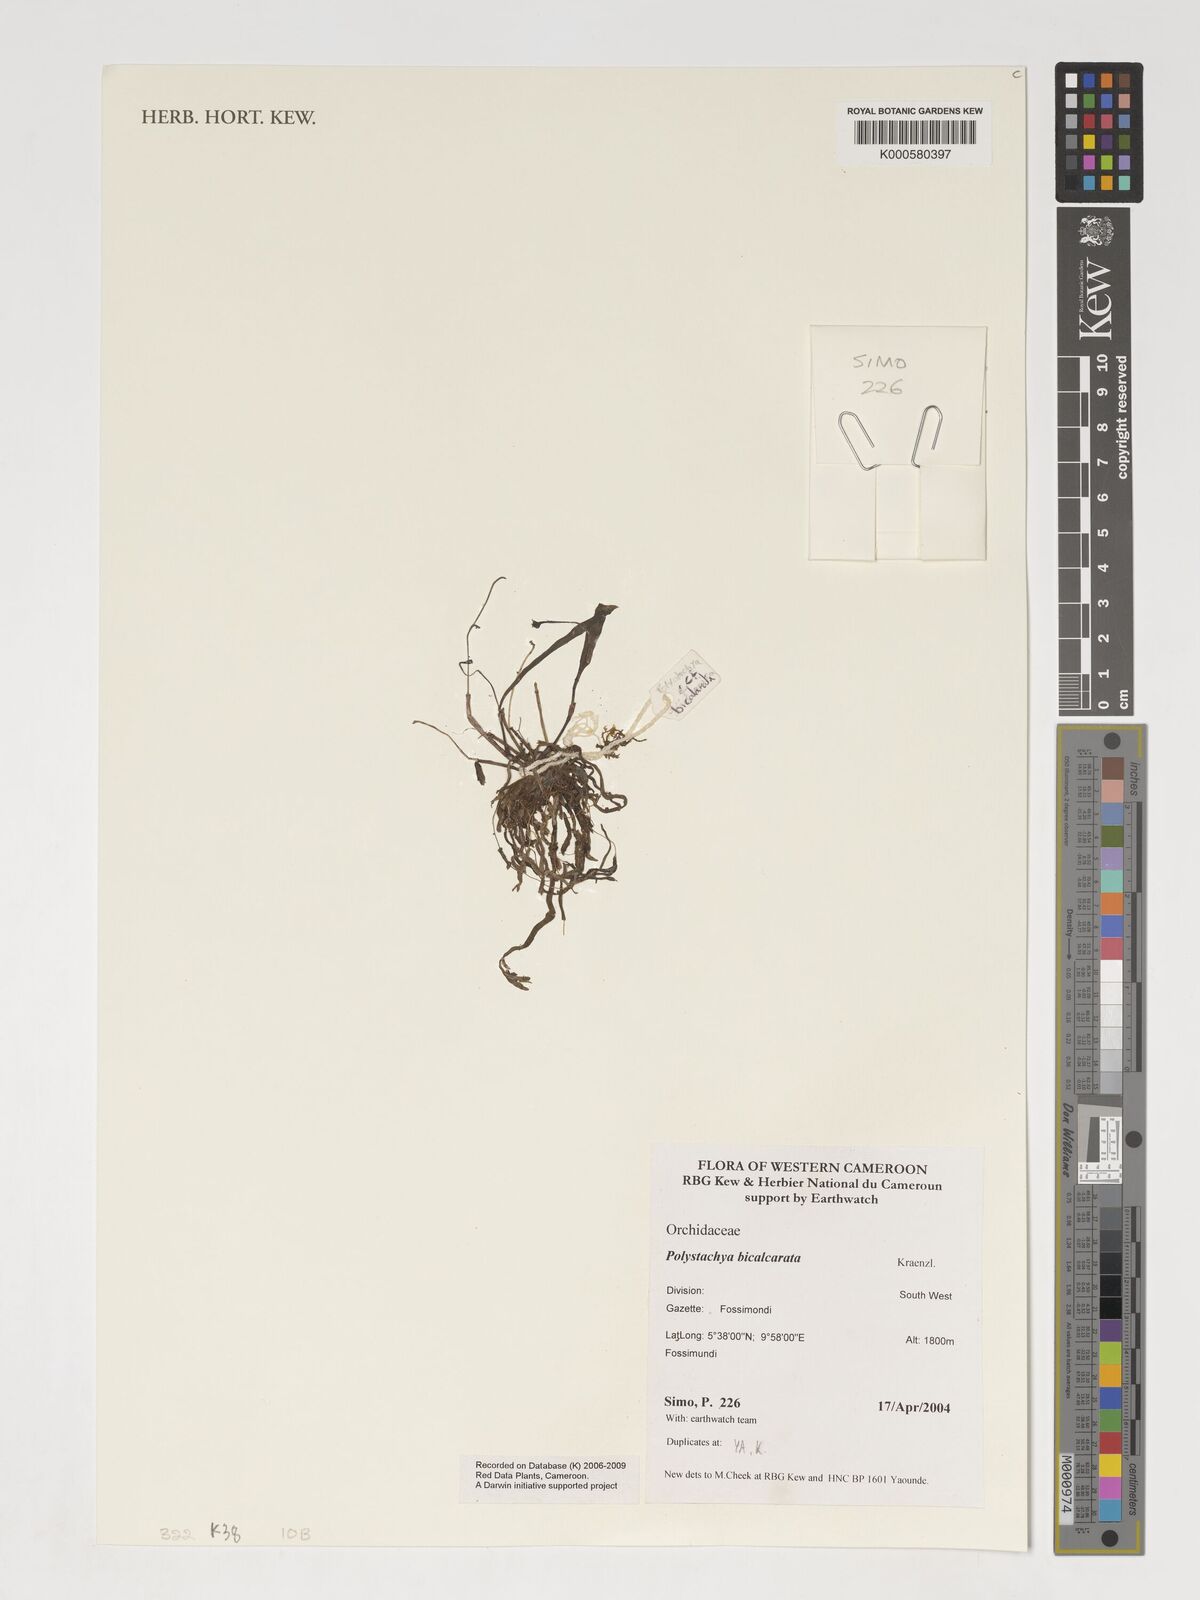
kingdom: Plantae
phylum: Tracheophyta
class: Liliopsida
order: Asparagales
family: Orchidaceae
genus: Polystachya
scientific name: Polystachya bicalcarata
